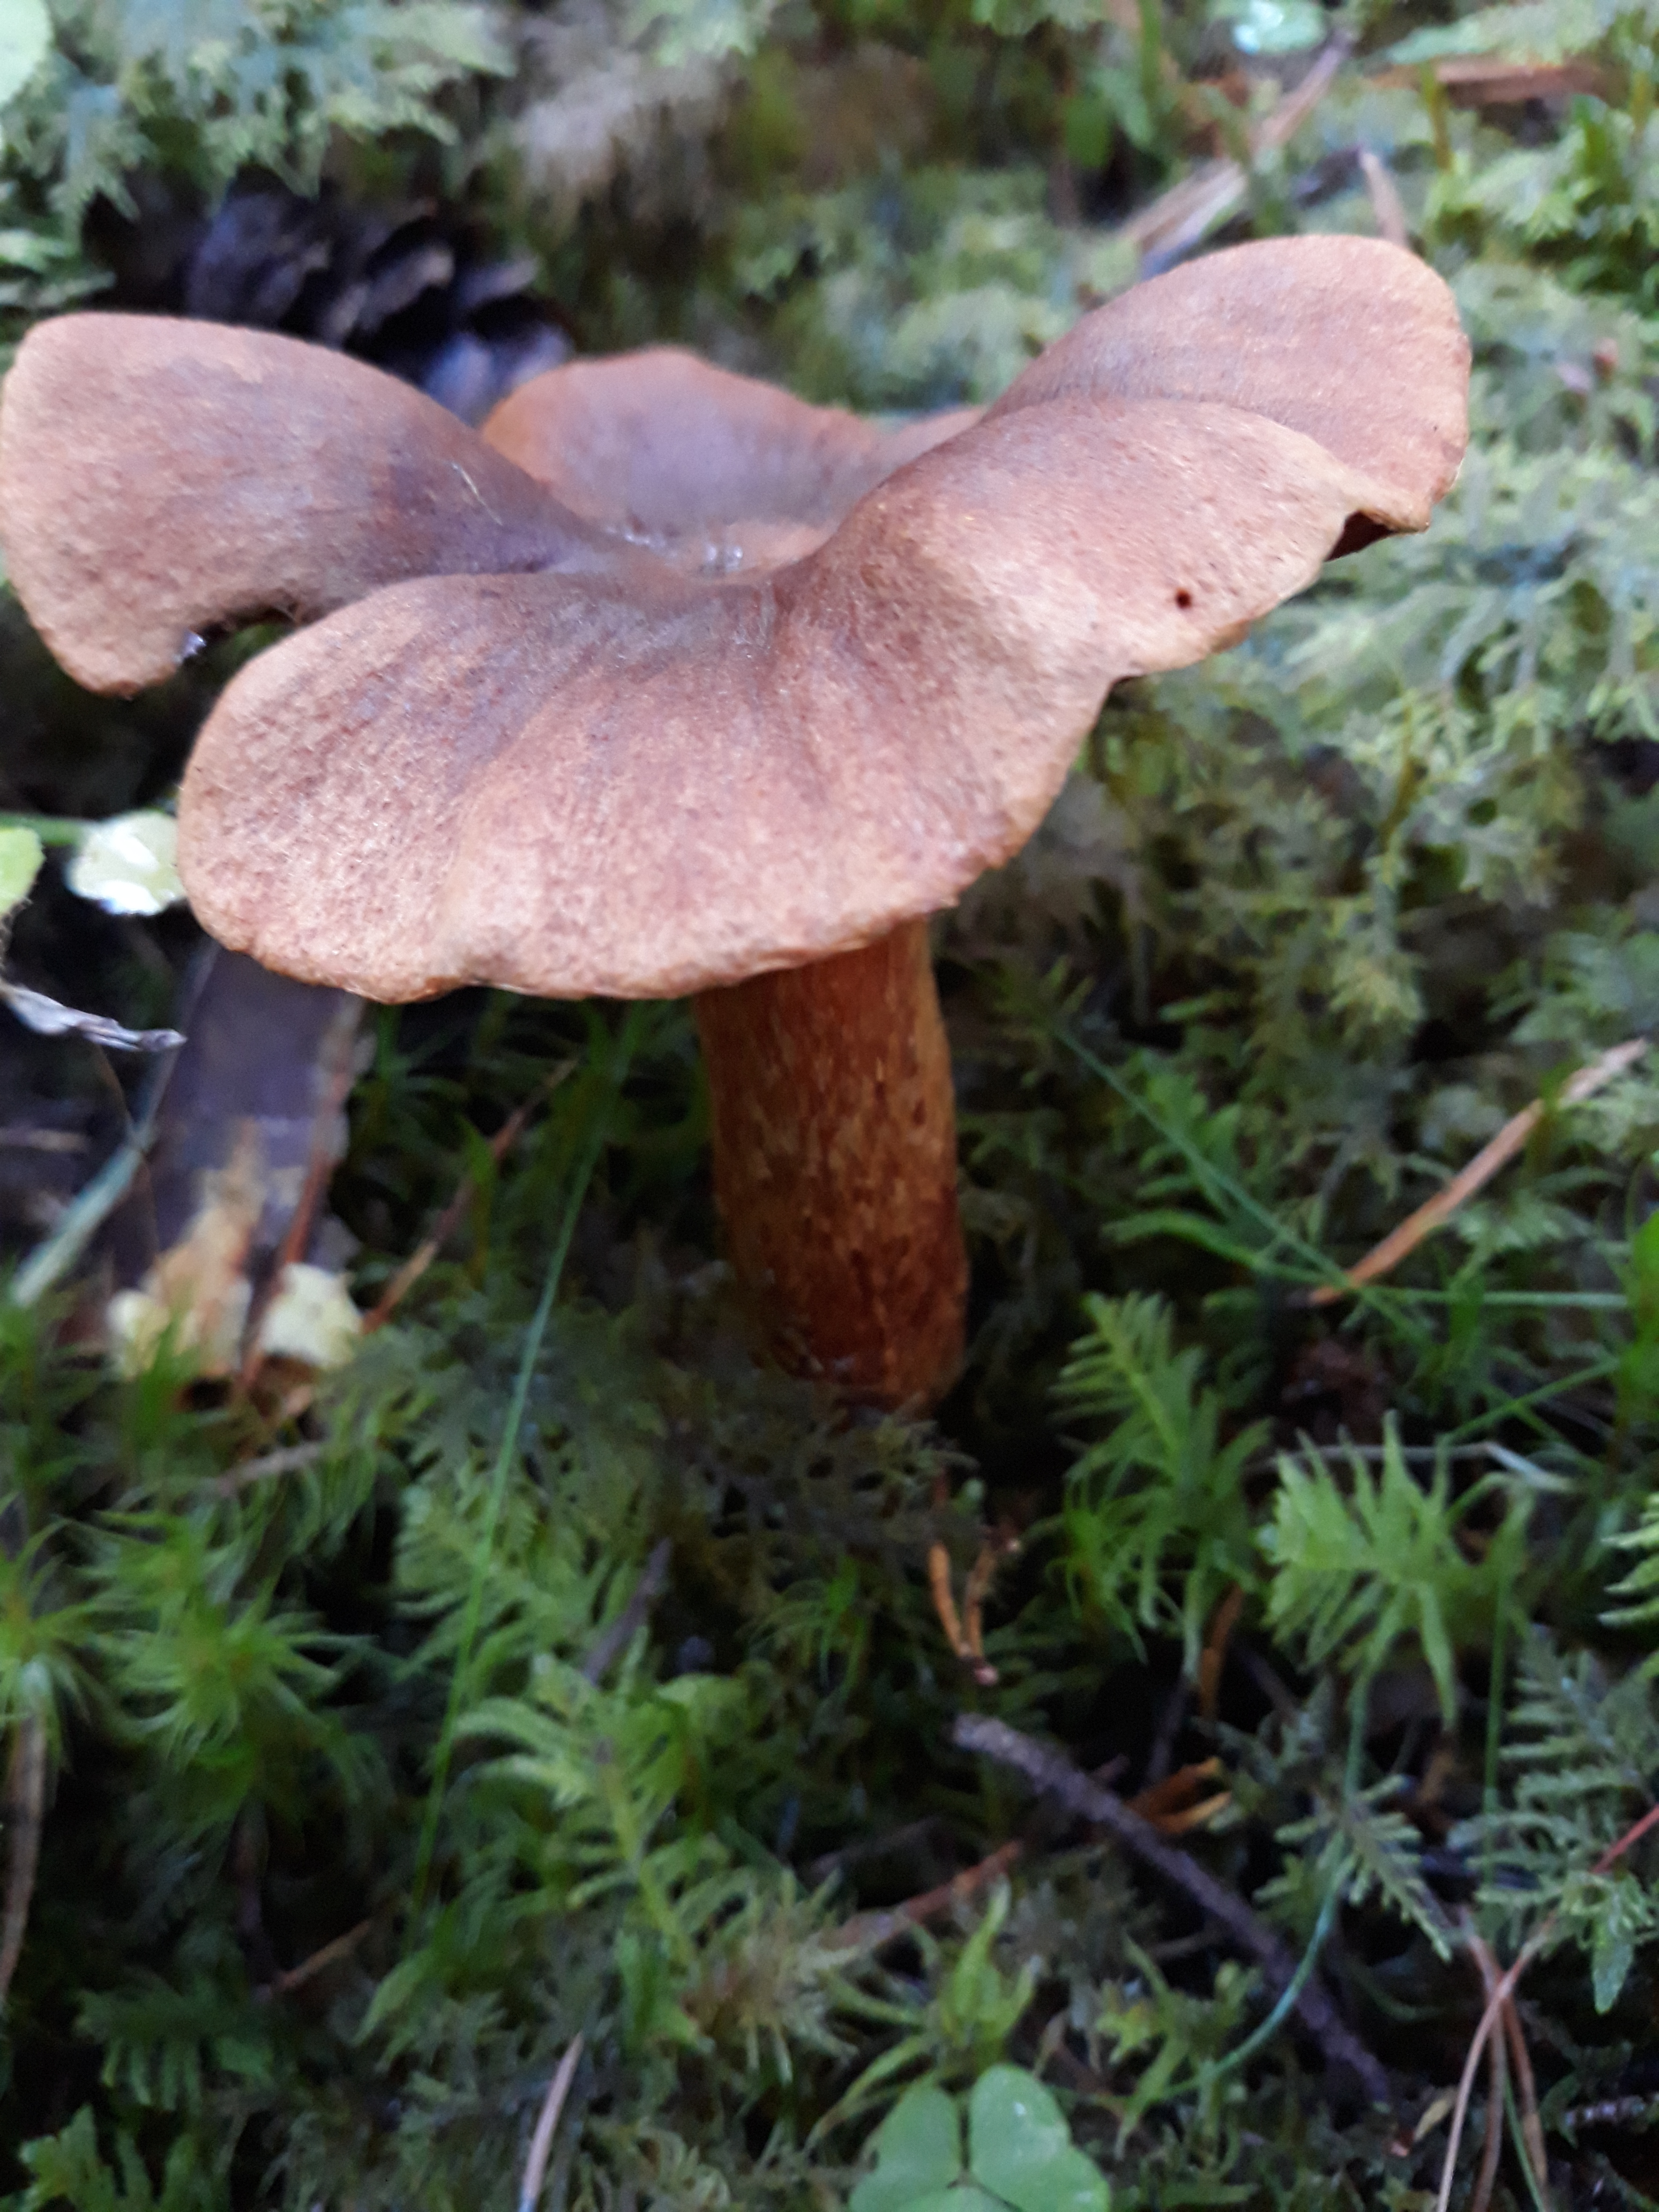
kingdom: Fungi
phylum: Basidiomycota
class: Agaricomycetes
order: Agaricales
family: Cortinariaceae
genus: Cortinarius
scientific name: Cortinarius rubellus
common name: Deadly webcap
